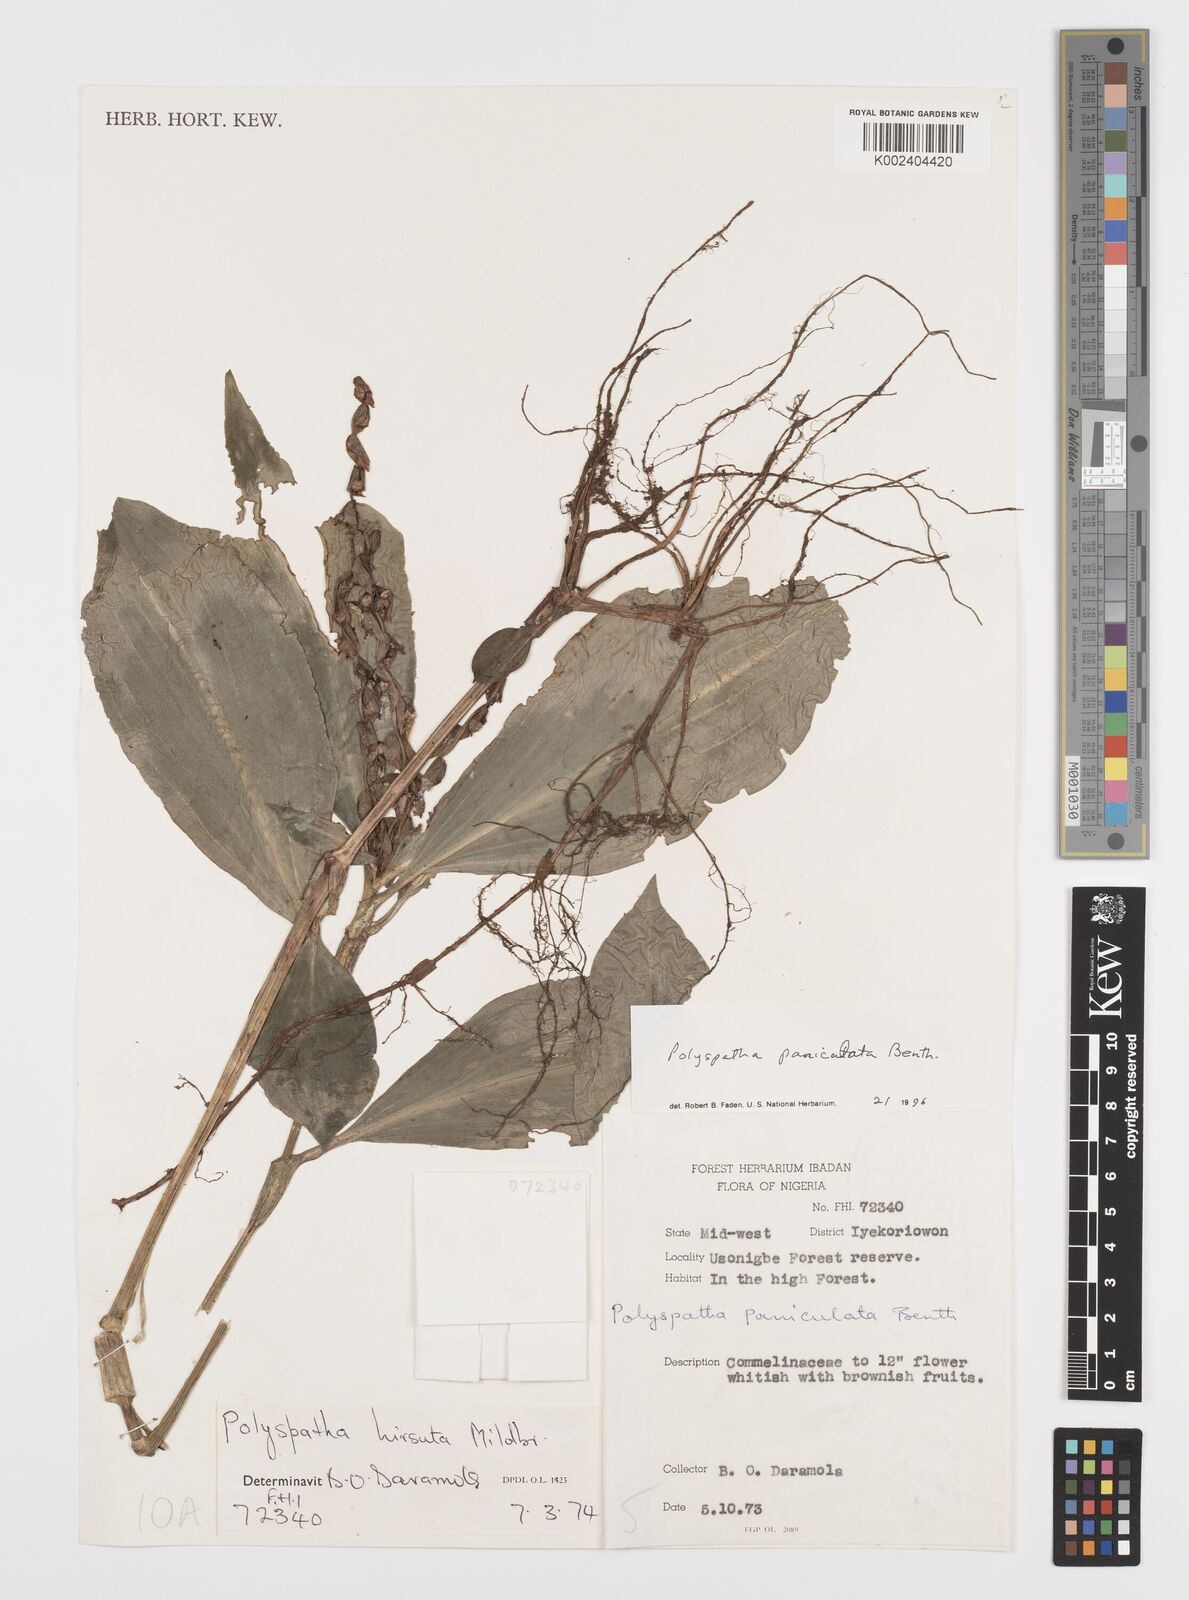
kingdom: Plantae
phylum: Tracheophyta
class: Liliopsida
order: Commelinales
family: Commelinaceae
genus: Polyspatha
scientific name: Polyspatha paniculata
